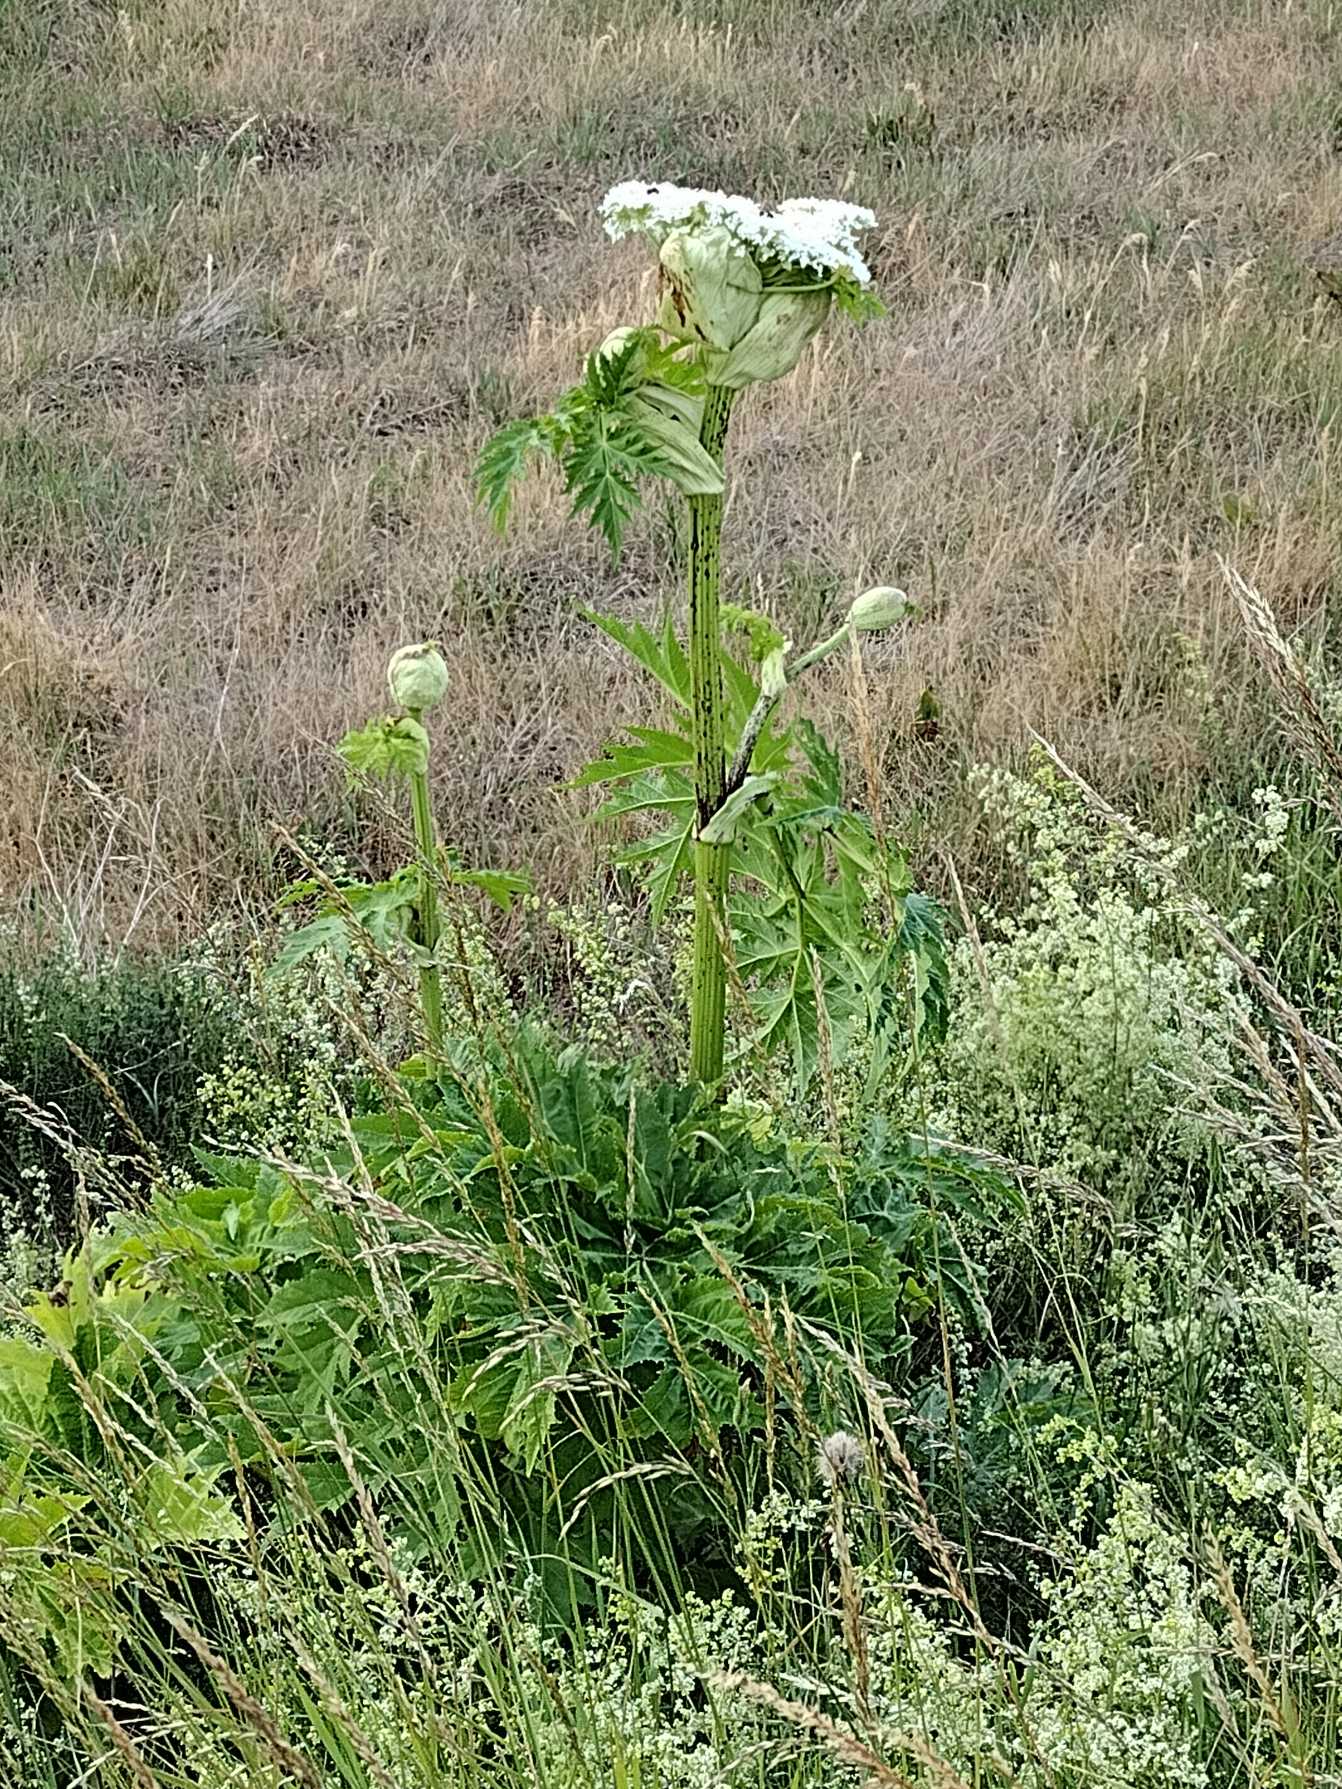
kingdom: Plantae
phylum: Tracheophyta
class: Magnoliopsida
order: Apiales
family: Apiaceae
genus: Heracleum
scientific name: Heracleum mantegazzianum
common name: Kæmpe-bjørneklo
